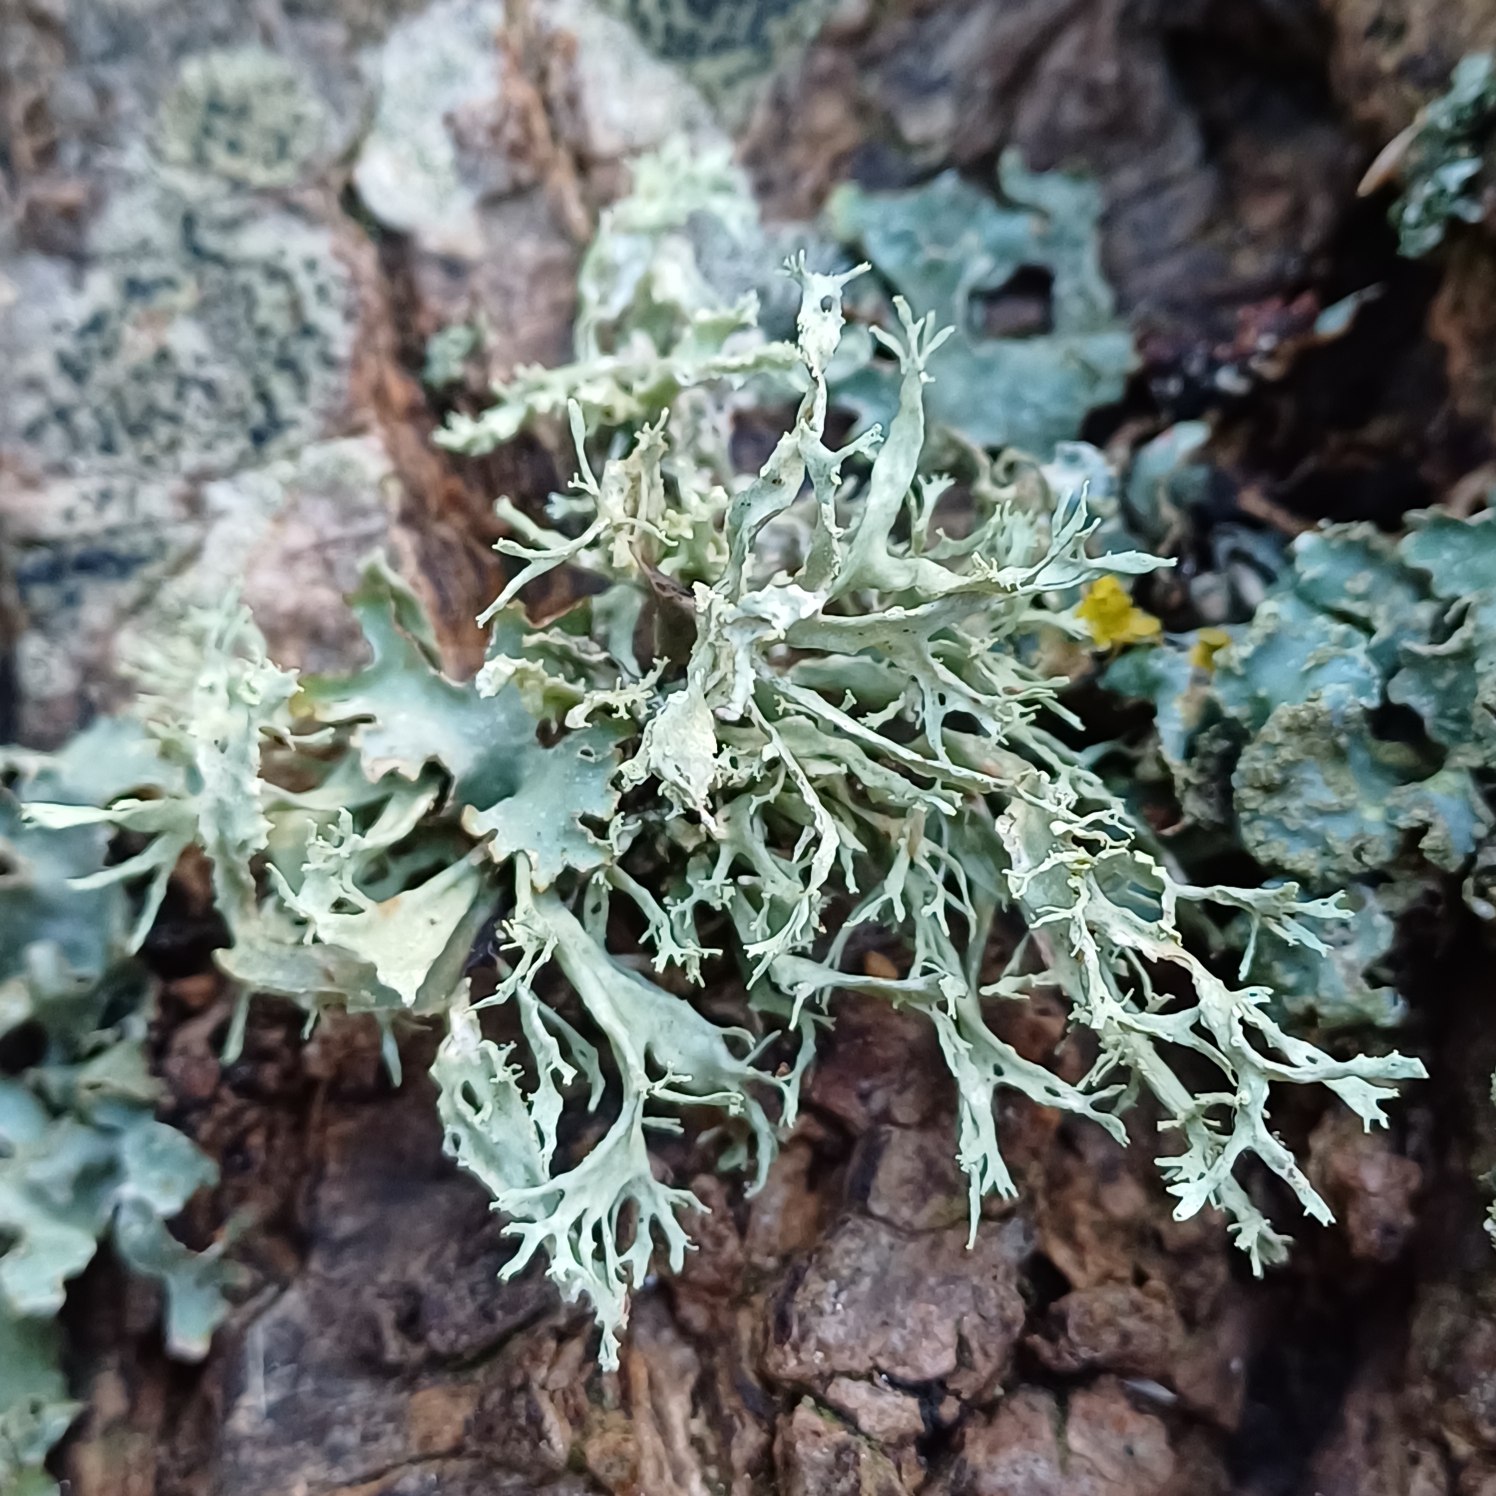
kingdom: Fungi
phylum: Ascomycota
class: Lecanoromycetes
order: Lecanorales
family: Ramalinaceae
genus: Ramalina
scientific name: Ramalina farinacea
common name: Melet grenlav
